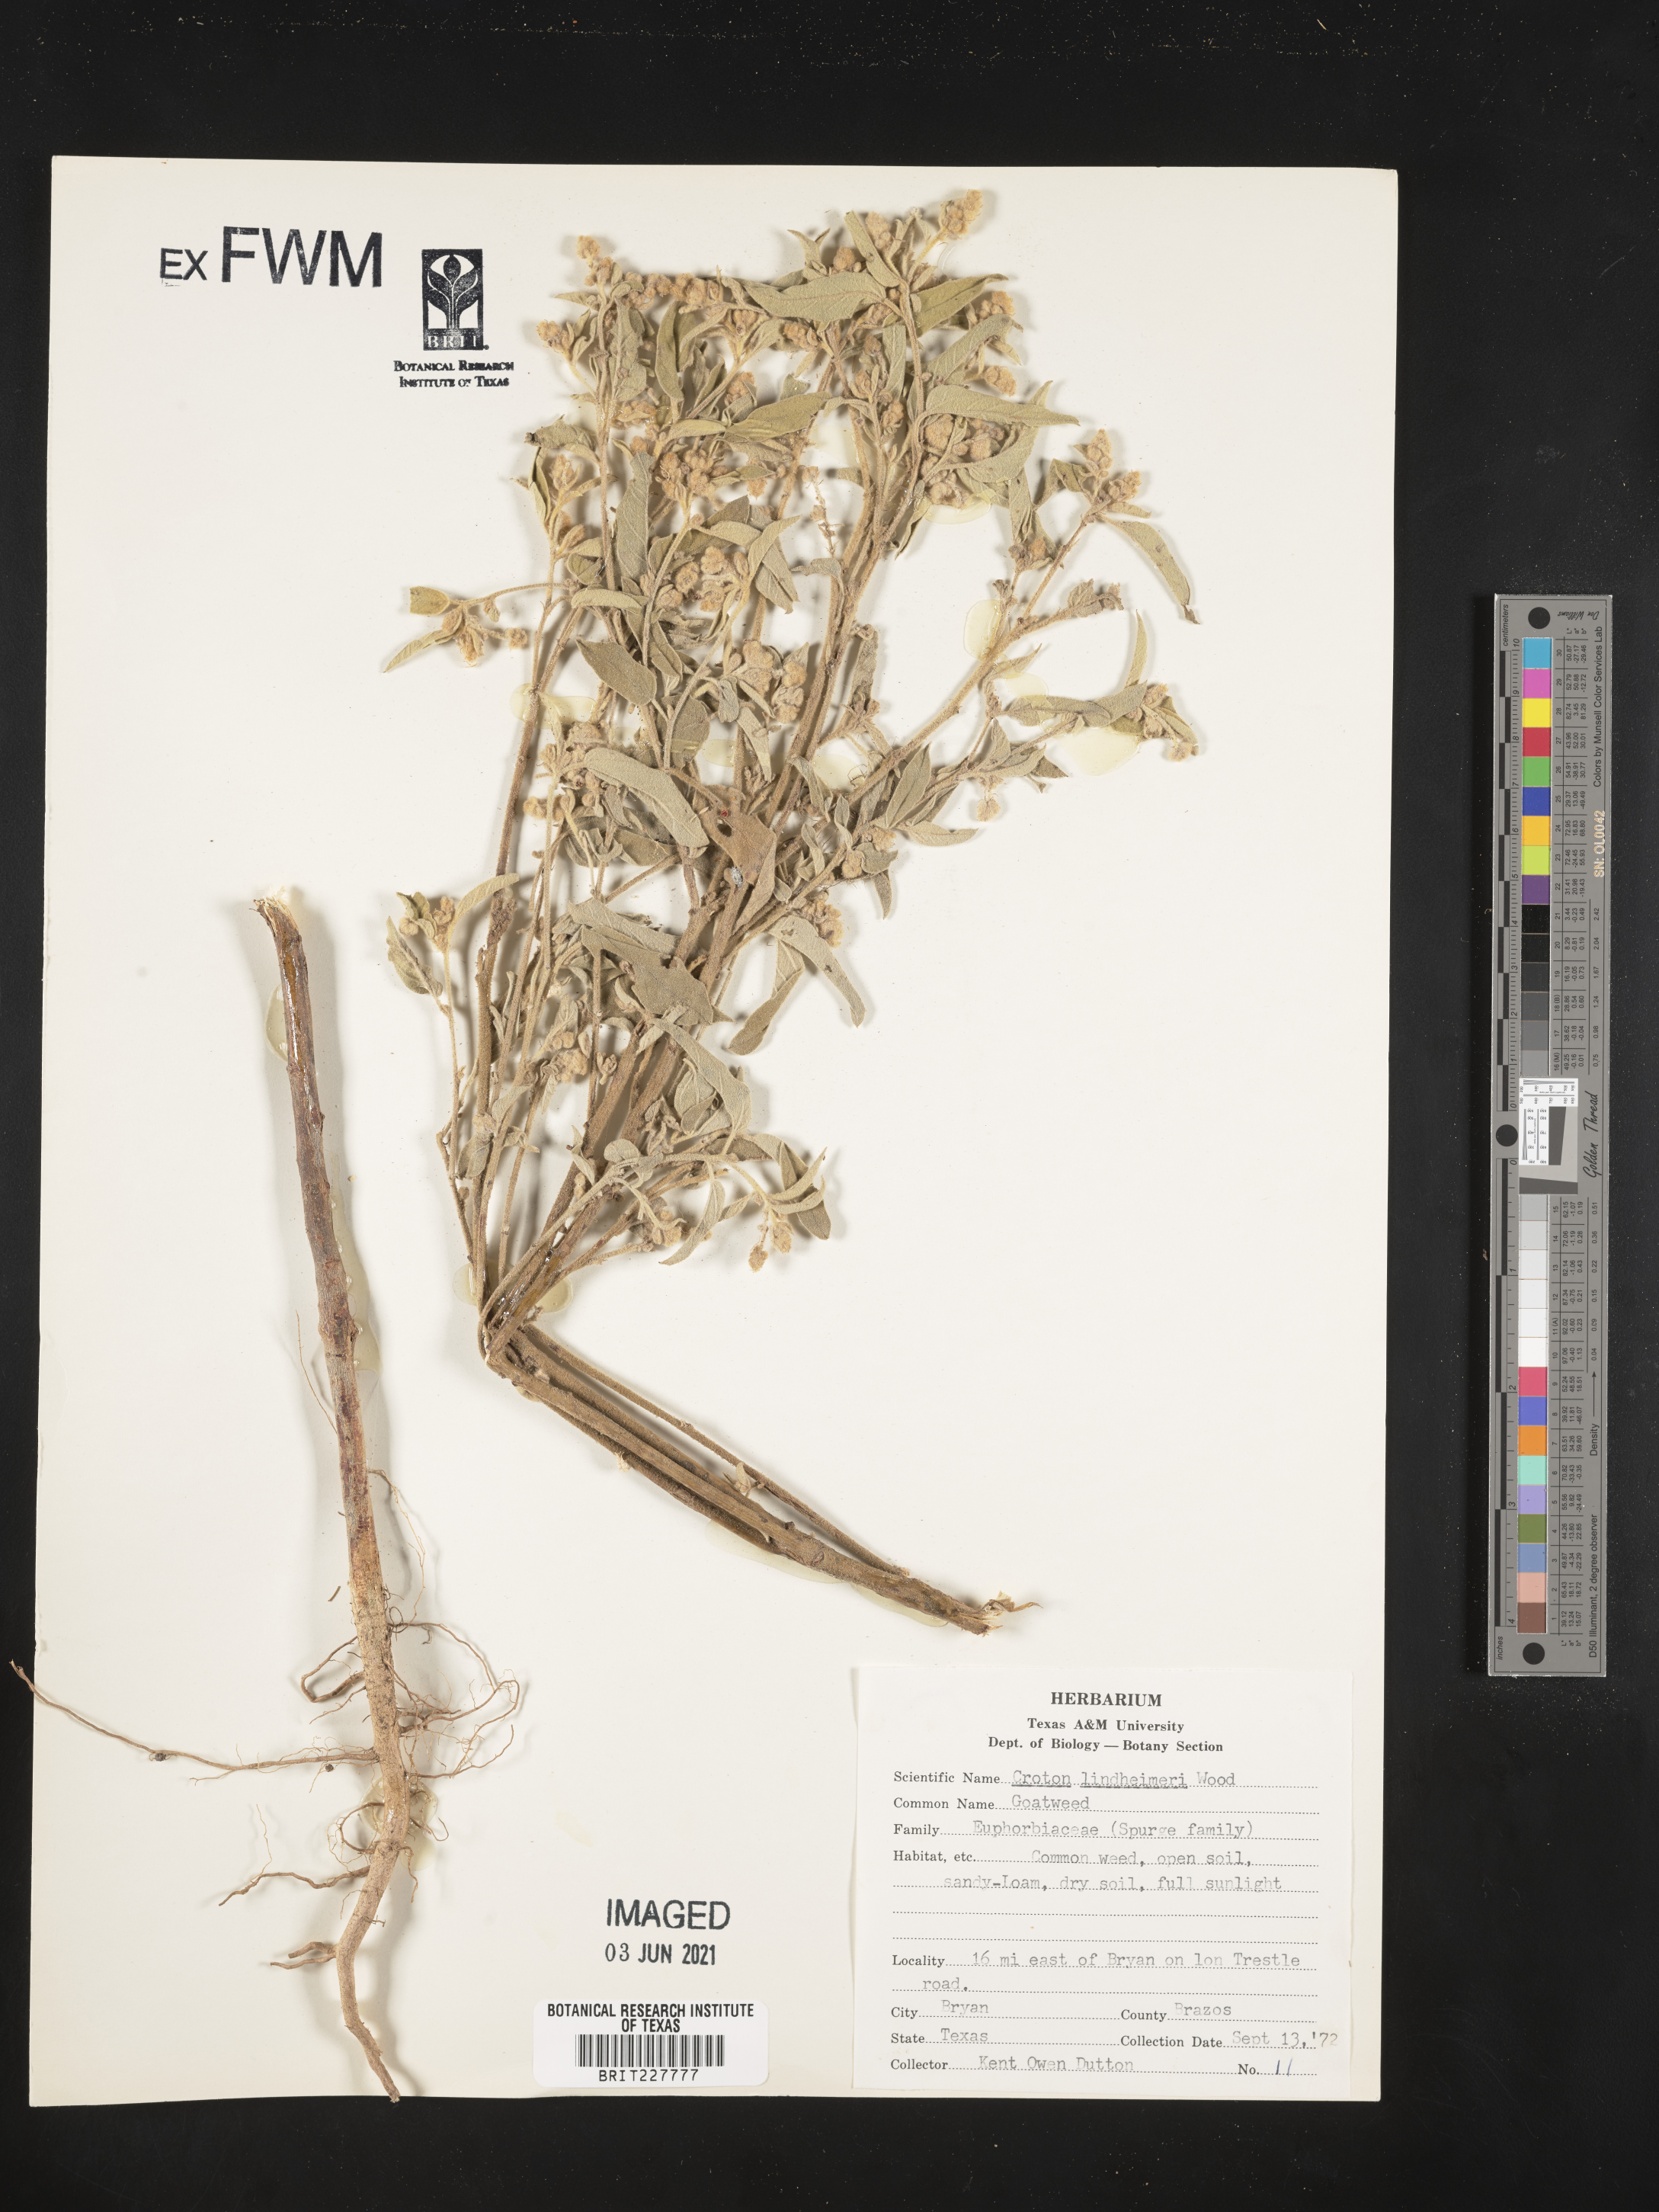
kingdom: Plantae
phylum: Tracheophyta
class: Magnoliopsida
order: Malpighiales
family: Euphorbiaceae
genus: Croton
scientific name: Croton lindheimeri
